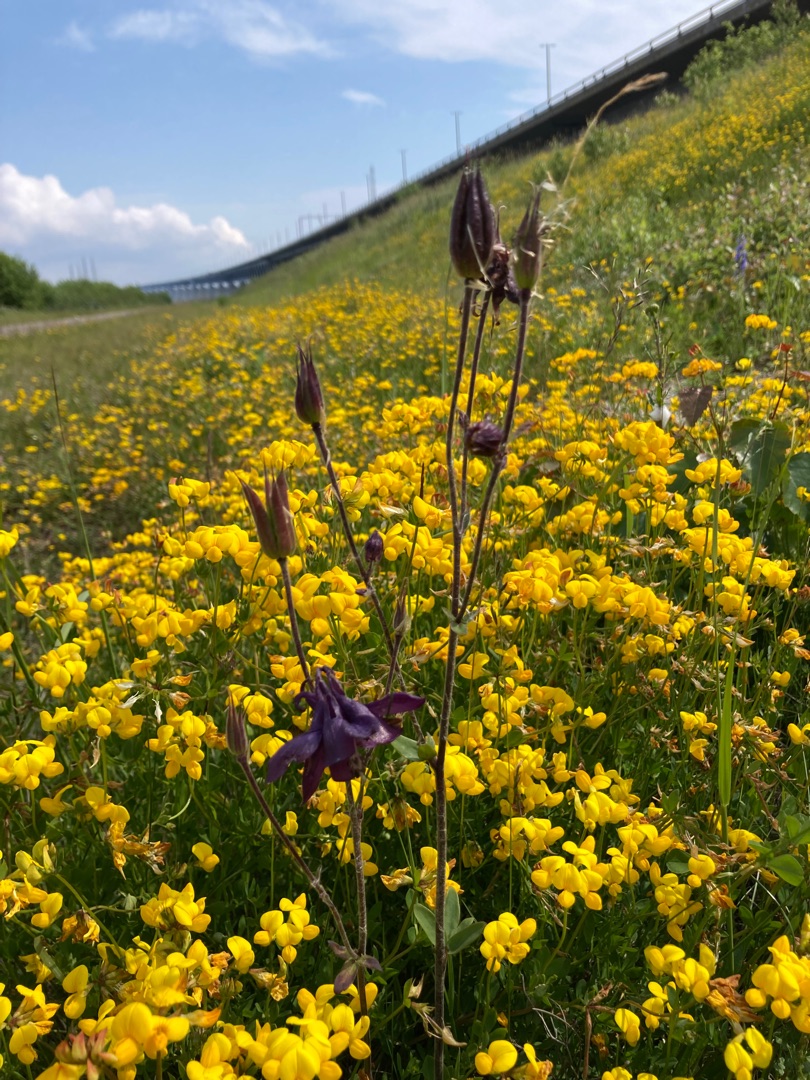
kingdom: Plantae
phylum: Tracheophyta
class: Magnoliopsida
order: Ranunculales
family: Ranunculaceae
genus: Aquilegia
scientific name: Aquilegia vulgaris
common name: Akeleje
